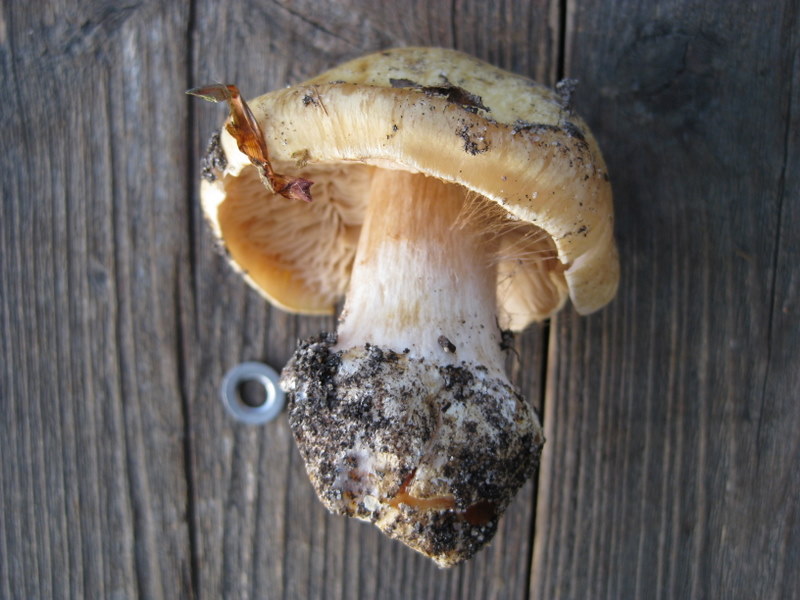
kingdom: Fungi
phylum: Basidiomycota
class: Agaricomycetes
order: Agaricales
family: Cortinariaceae
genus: Phlegmacium
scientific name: Phlegmacium xantho-ochraceum
